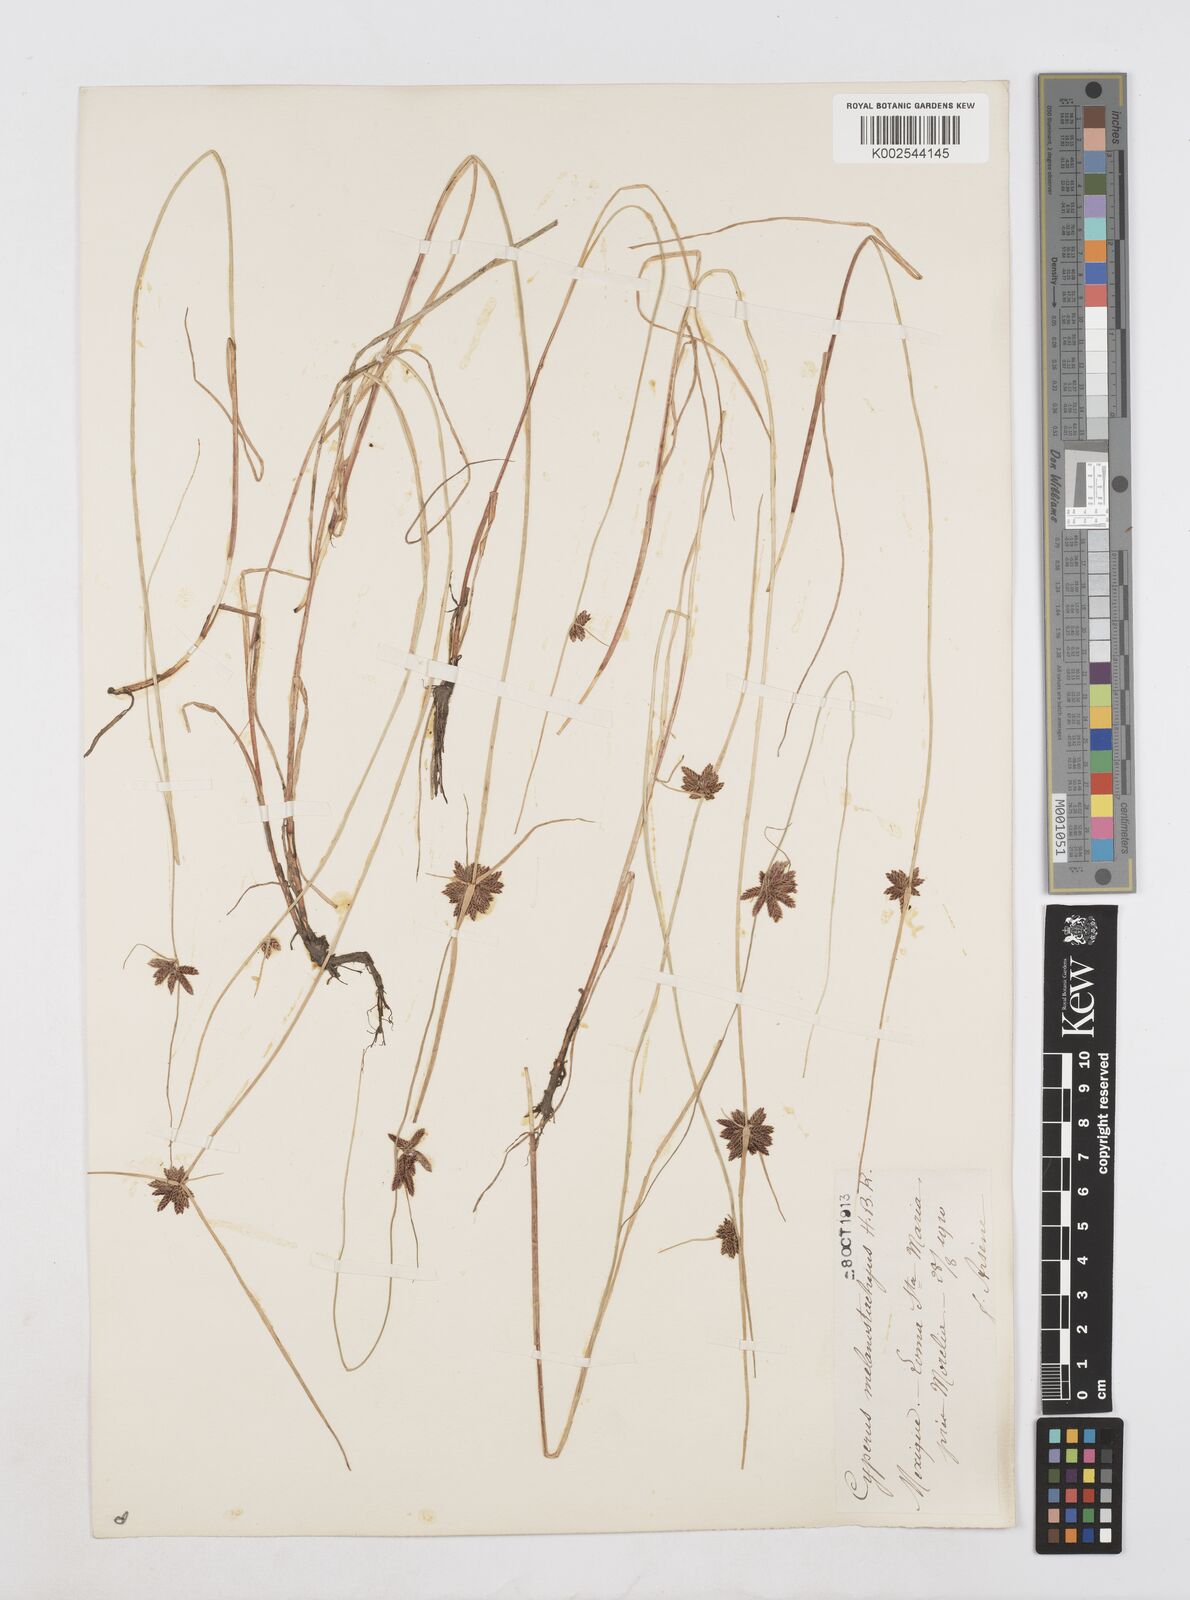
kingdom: Plantae
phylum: Tracheophyta
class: Liliopsida
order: Poales
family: Cyperaceae
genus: Cyperus
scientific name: Cyperus melanostachyus
